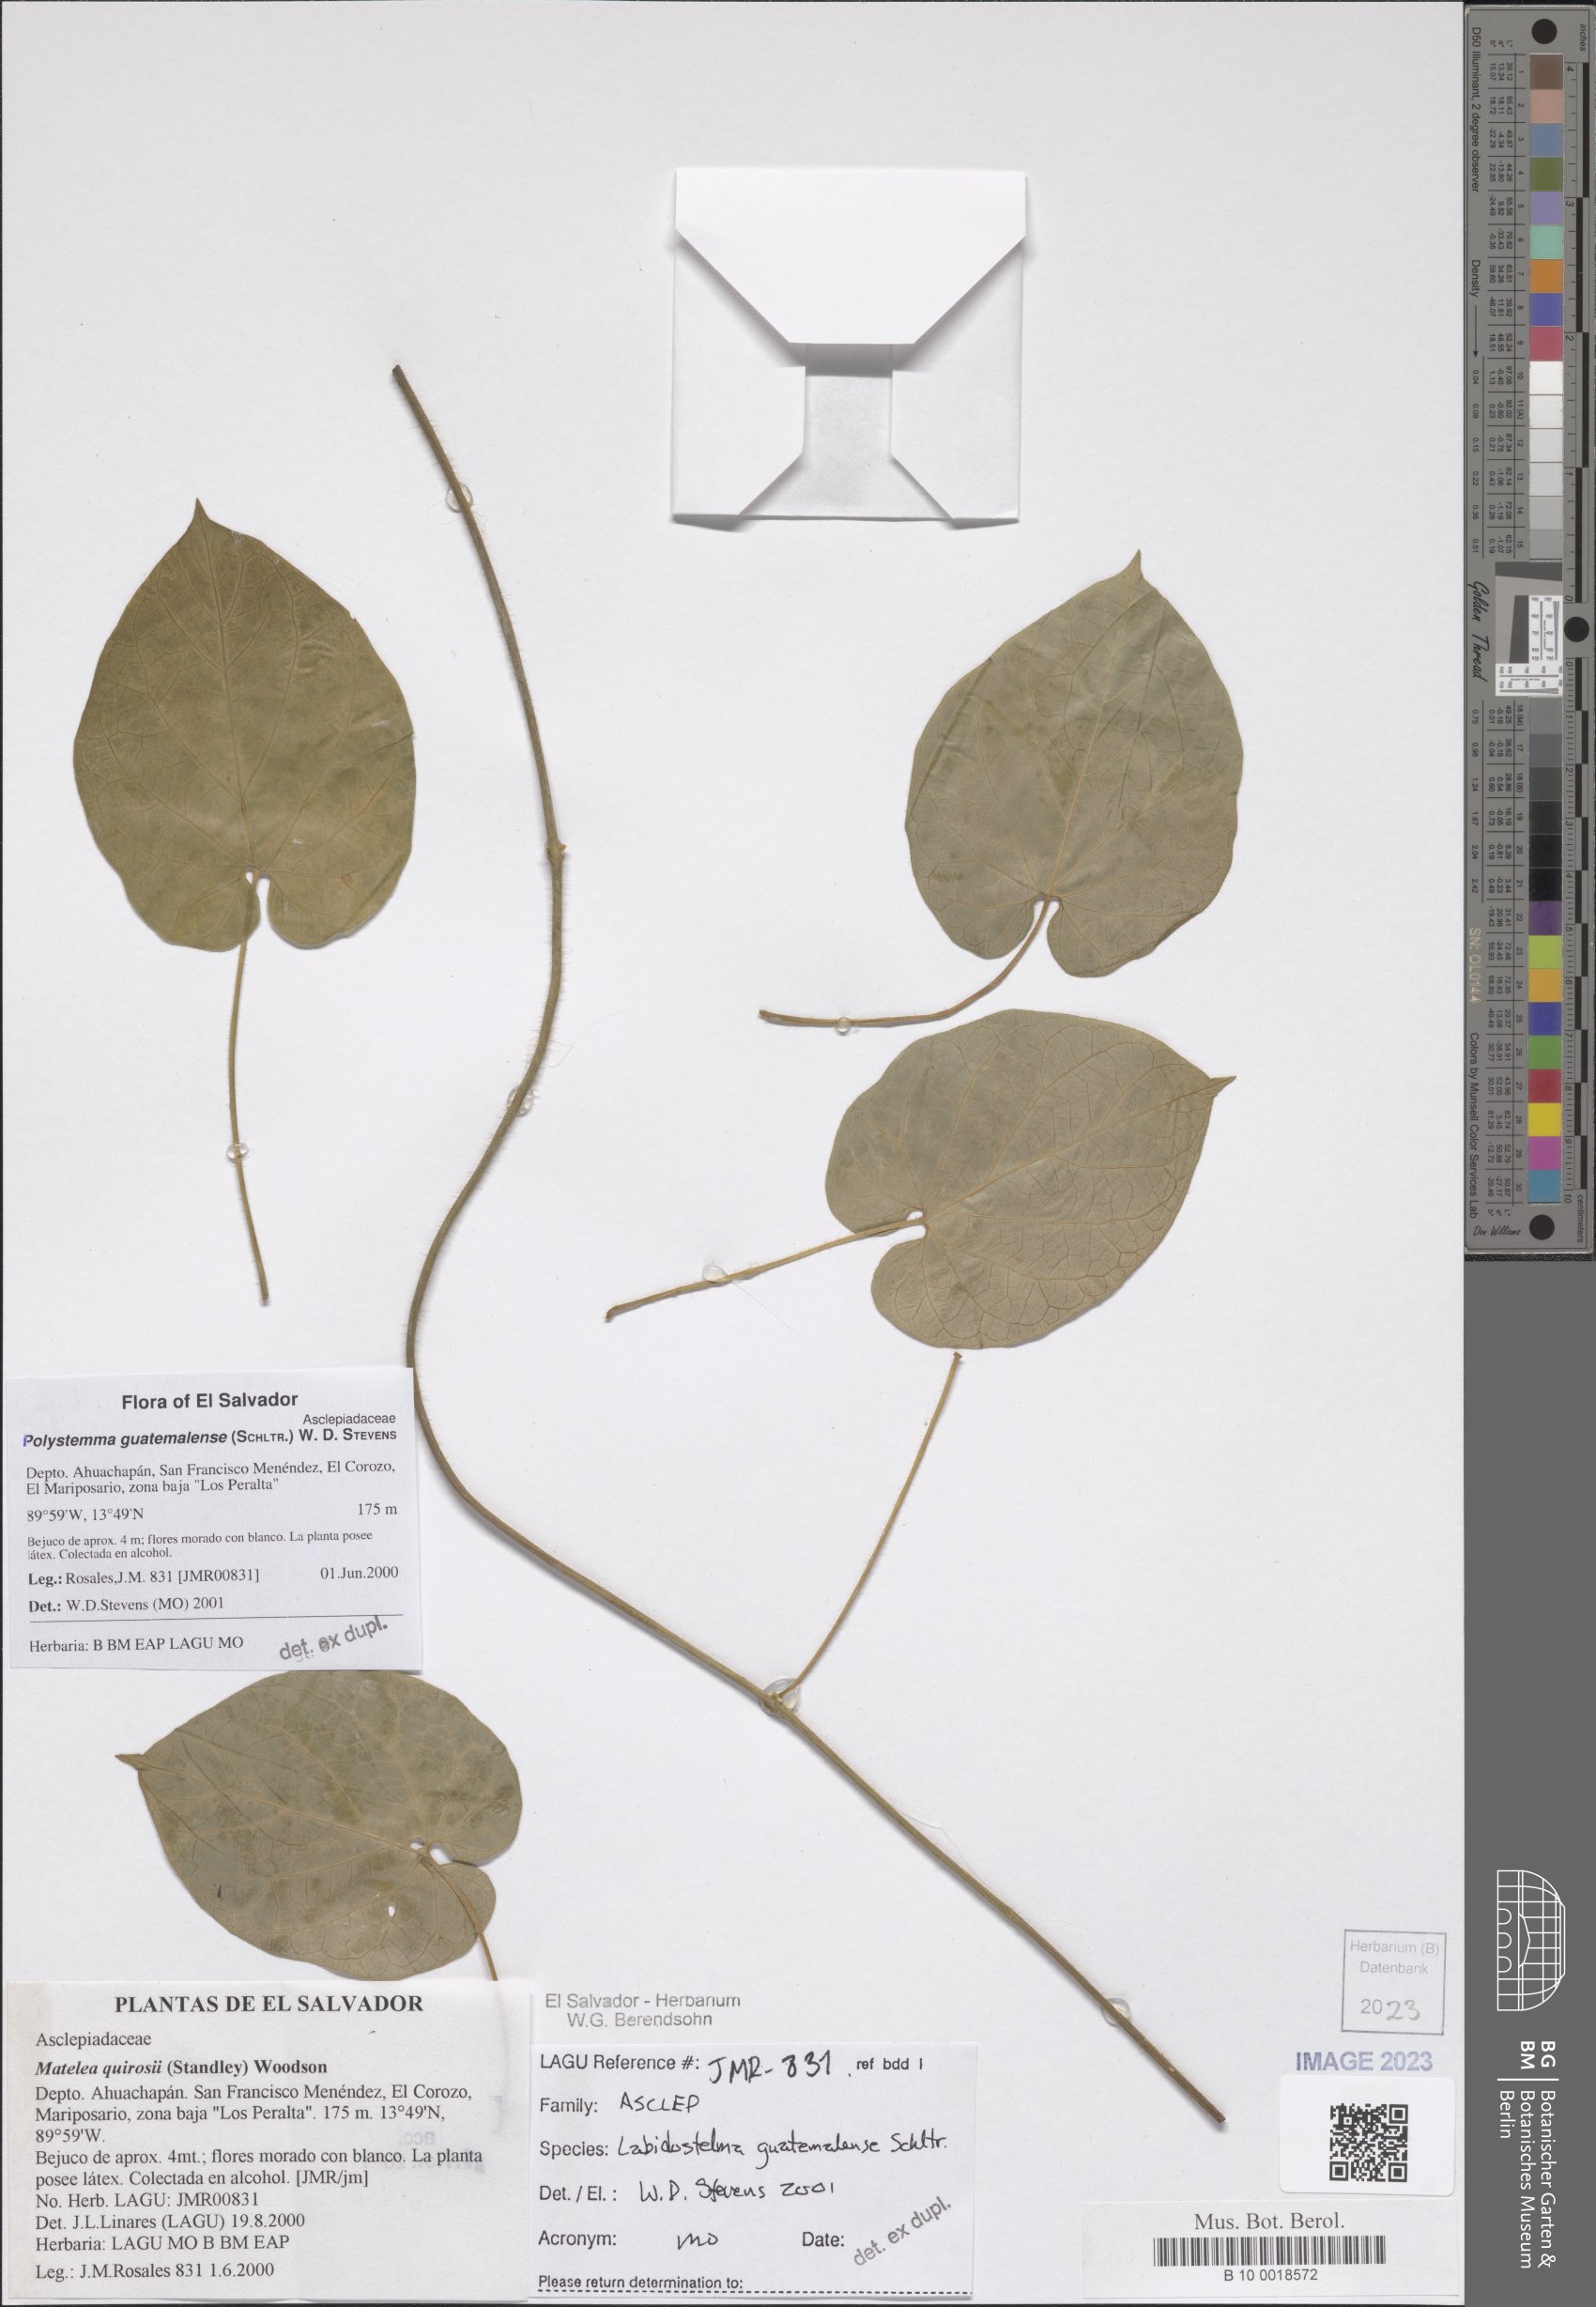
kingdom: Plantae
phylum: Tracheophyta
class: Magnoliopsida
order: Gentianales
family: Apocynaceae
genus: Polystemma
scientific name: Polystemma guatemalense
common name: Arborescente rattan
